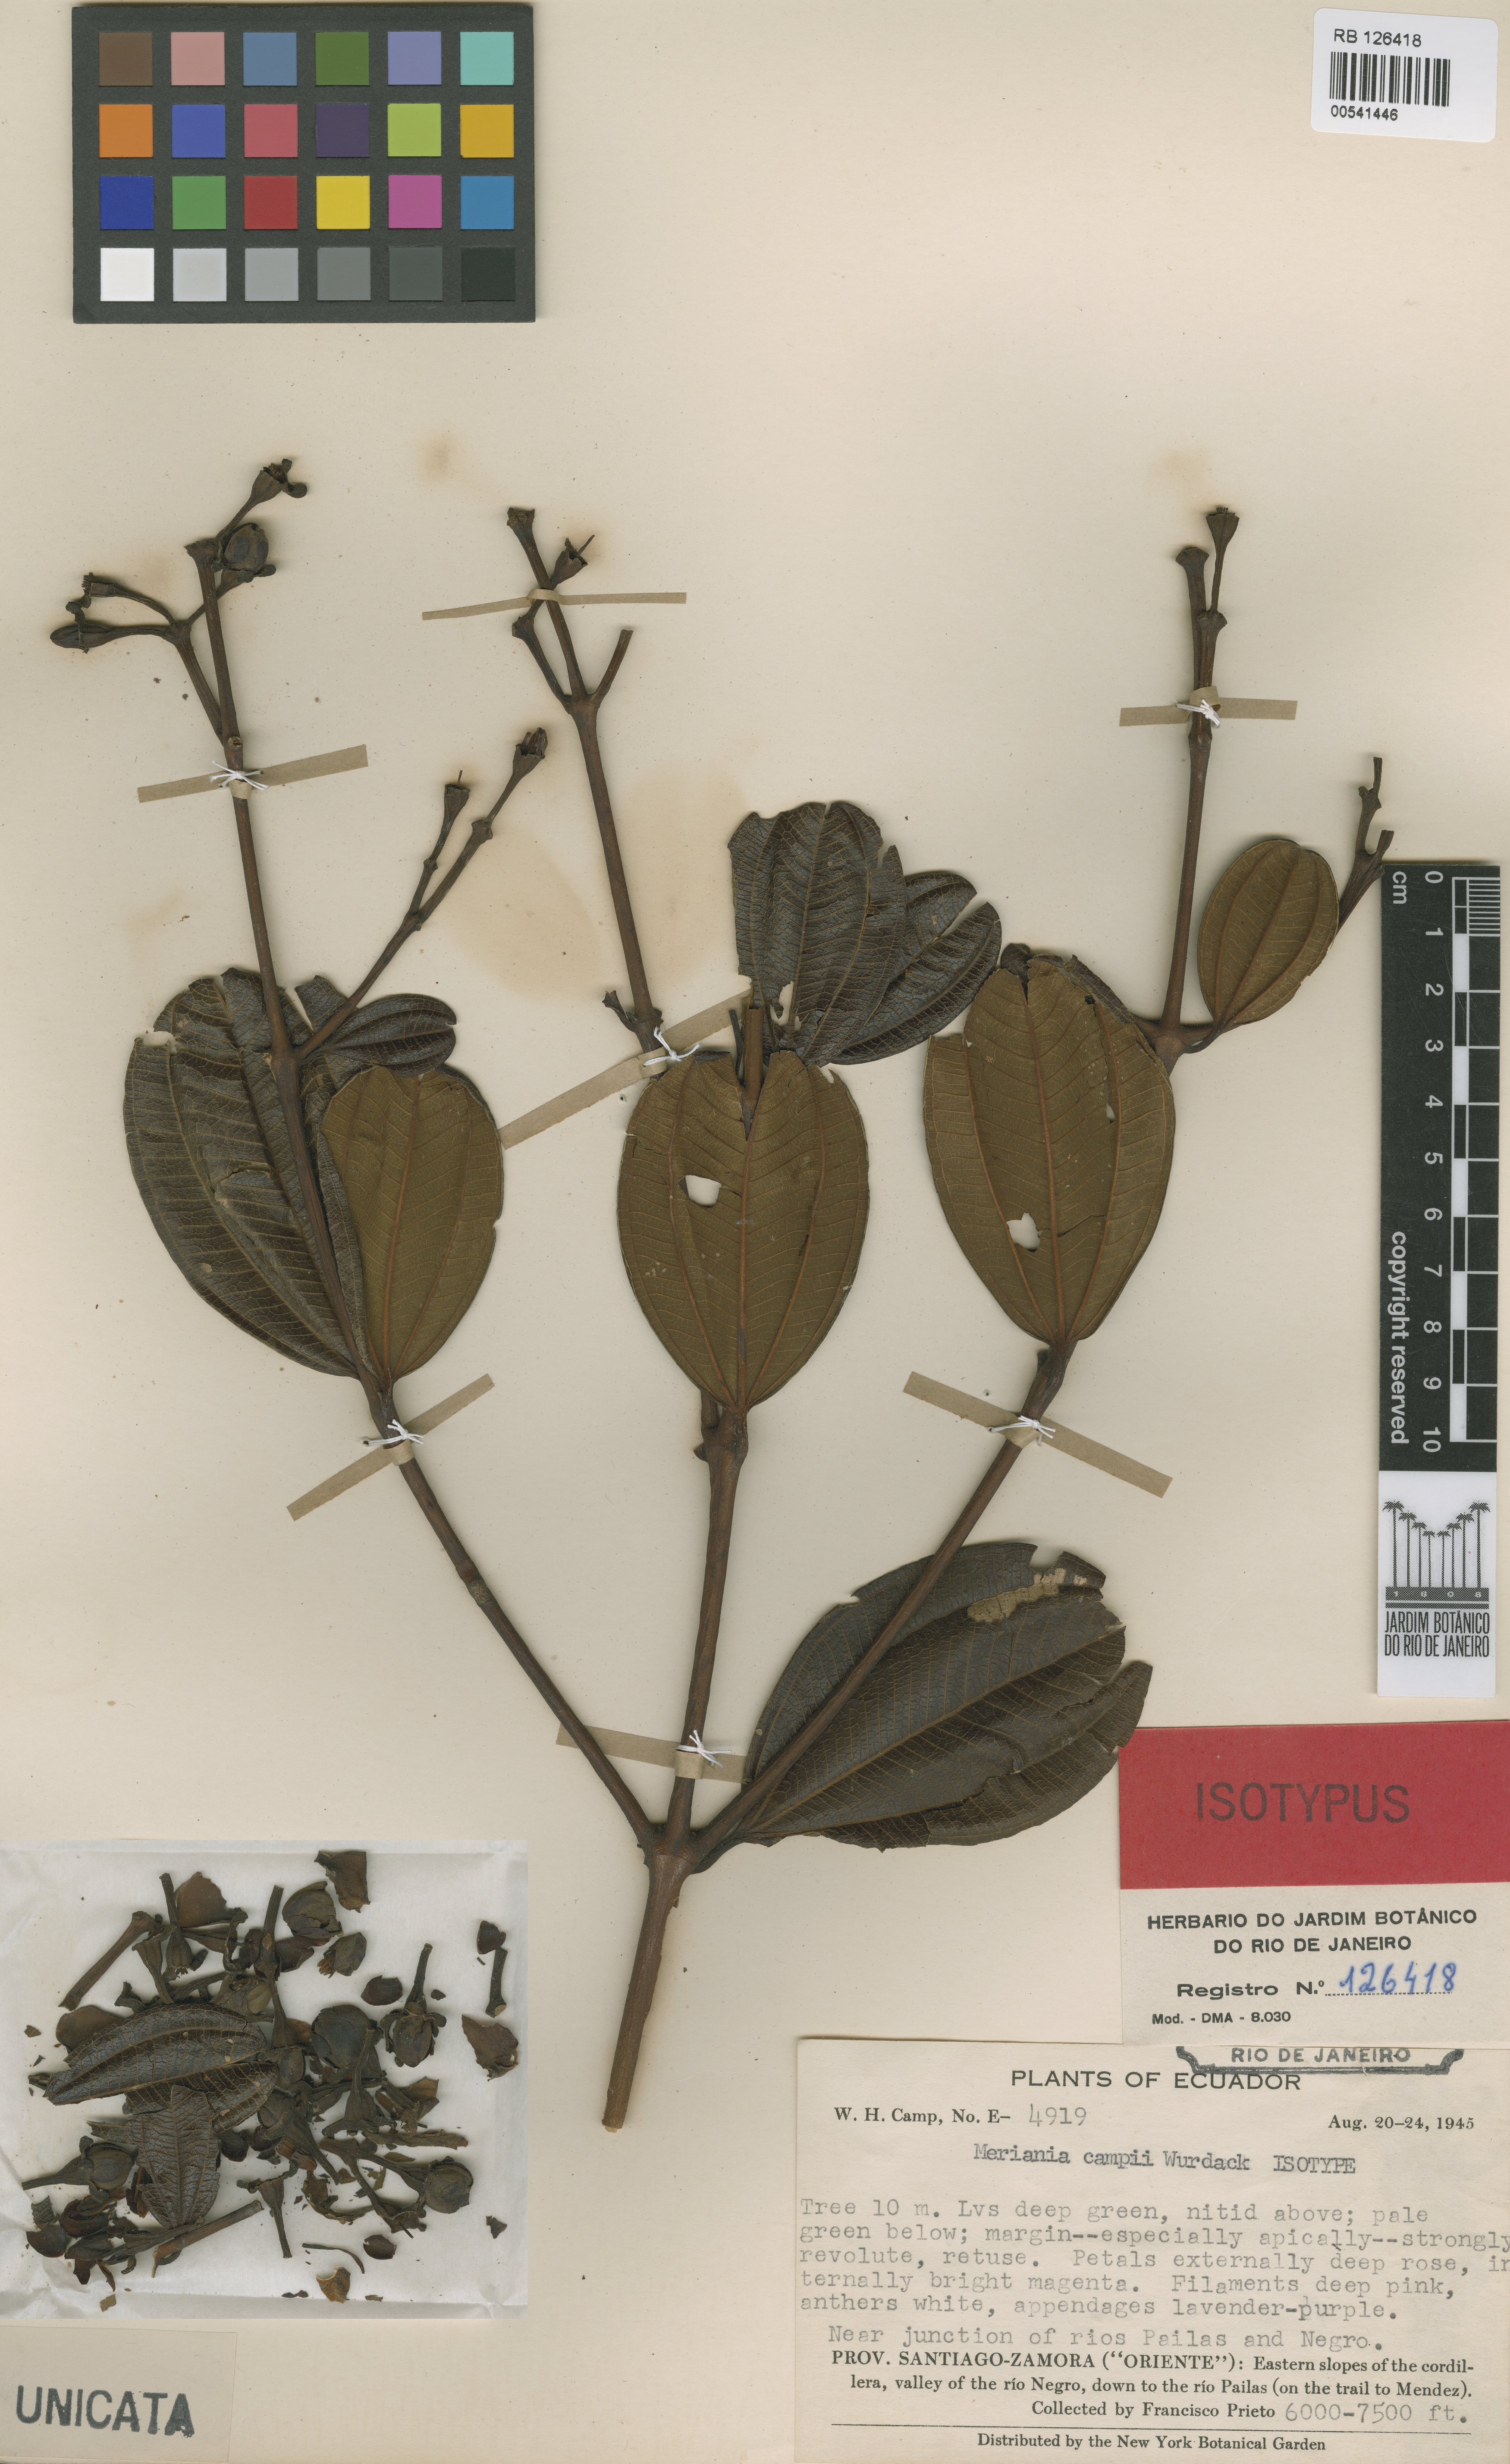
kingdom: Plantae
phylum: Tracheophyta
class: Magnoliopsida
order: Myrtales
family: Melastomataceae
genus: Meriania
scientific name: Meriania campii
